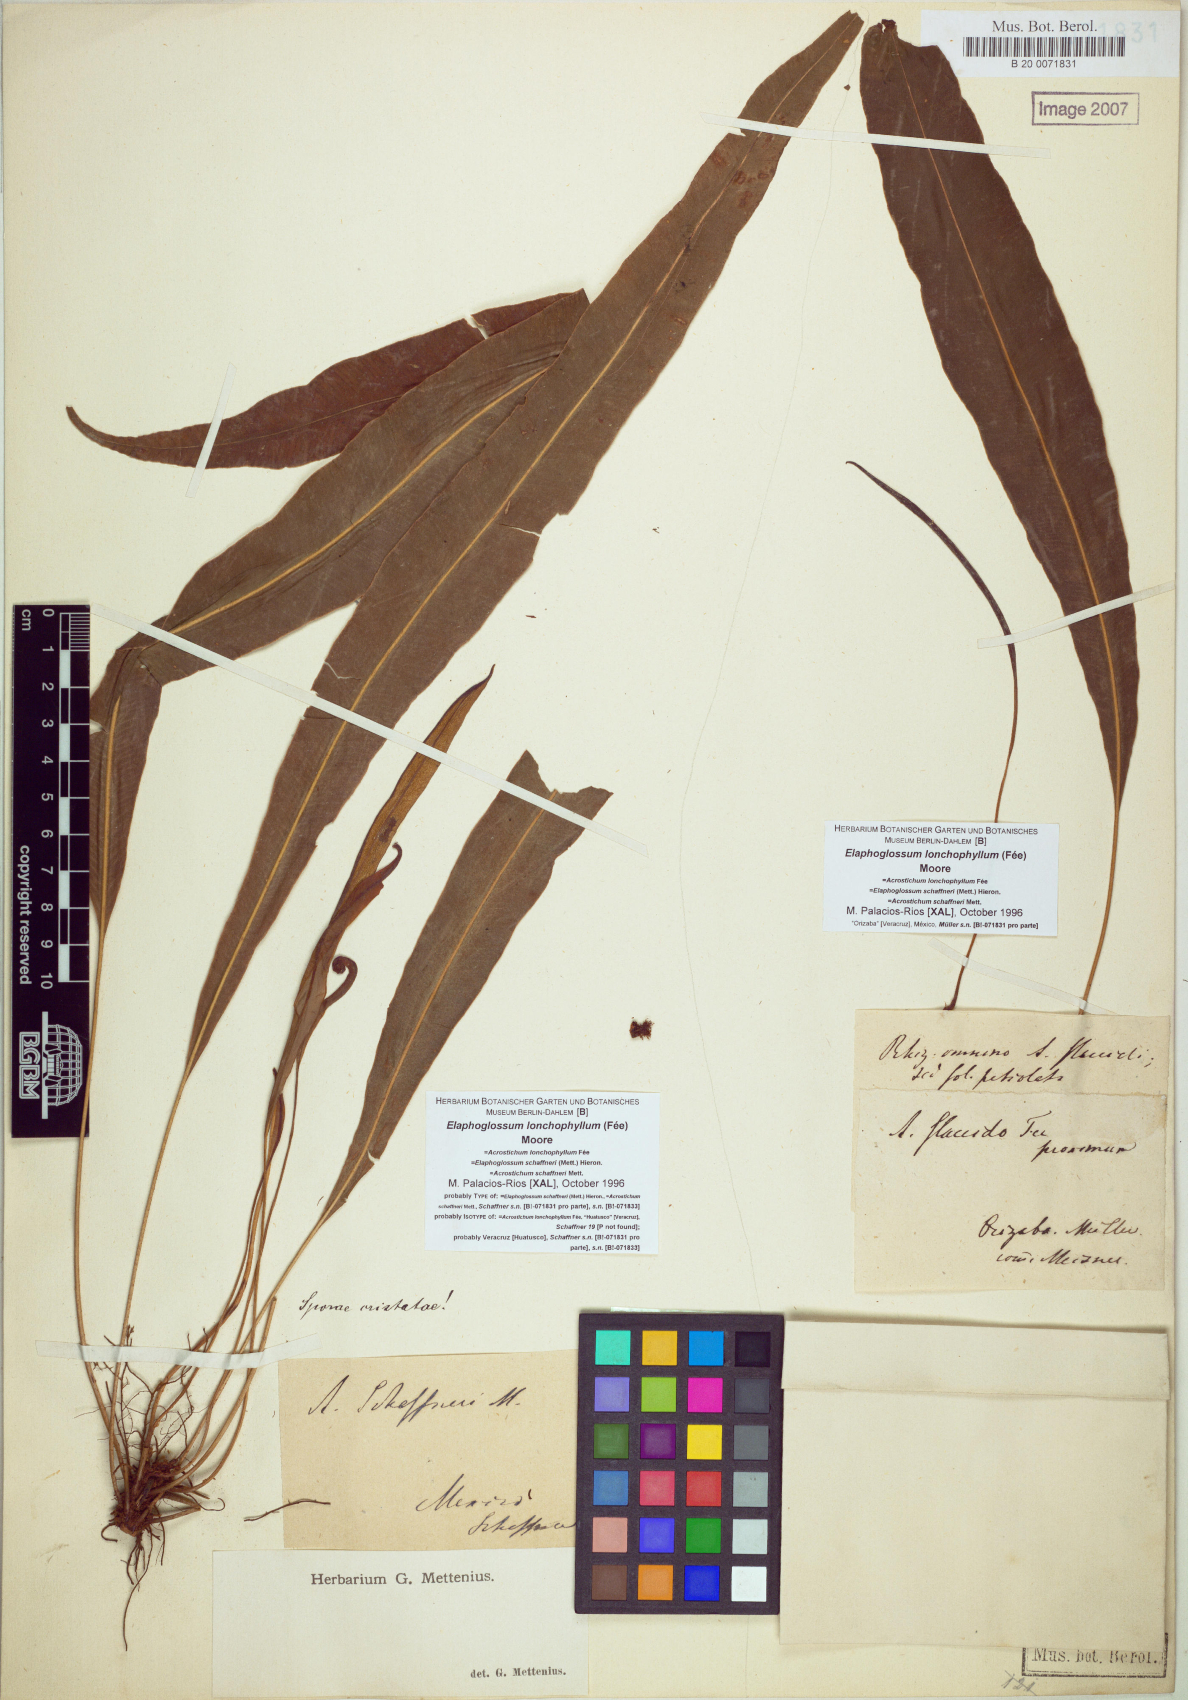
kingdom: Plantae
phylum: Tracheophyta
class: Polypodiopsida
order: Polypodiales
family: Dryopteridaceae
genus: Elaphoglossum
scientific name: Elaphoglossum lonchophyllum
